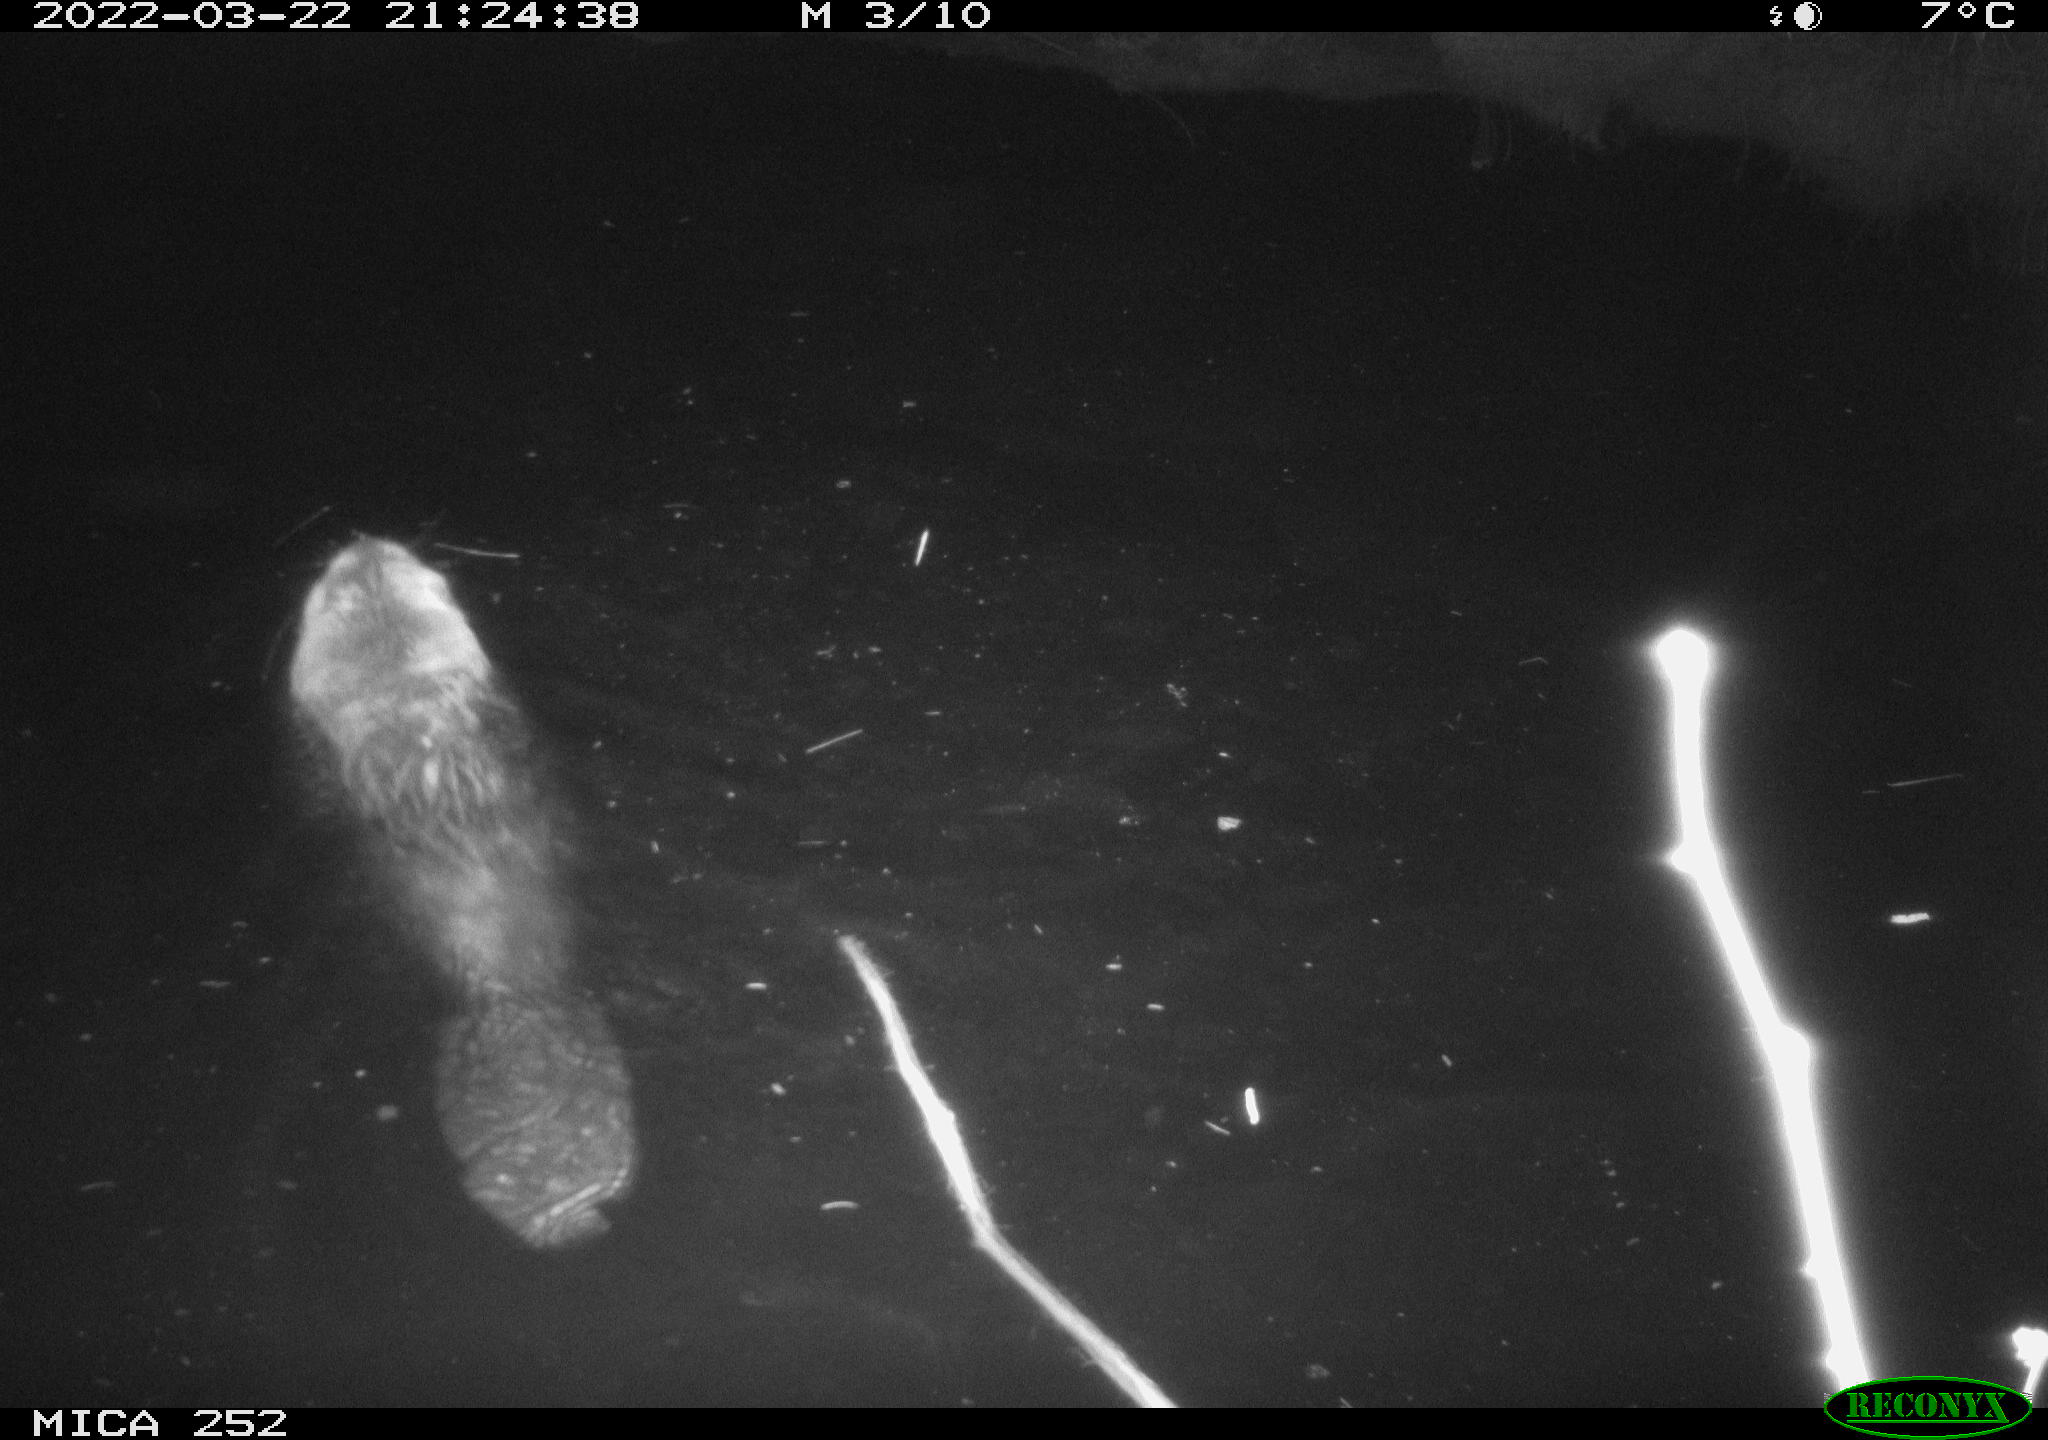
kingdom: Animalia
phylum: Chordata
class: Mammalia
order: Rodentia
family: Castoridae
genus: Castor
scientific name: Castor fiber
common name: Eurasian beaver
